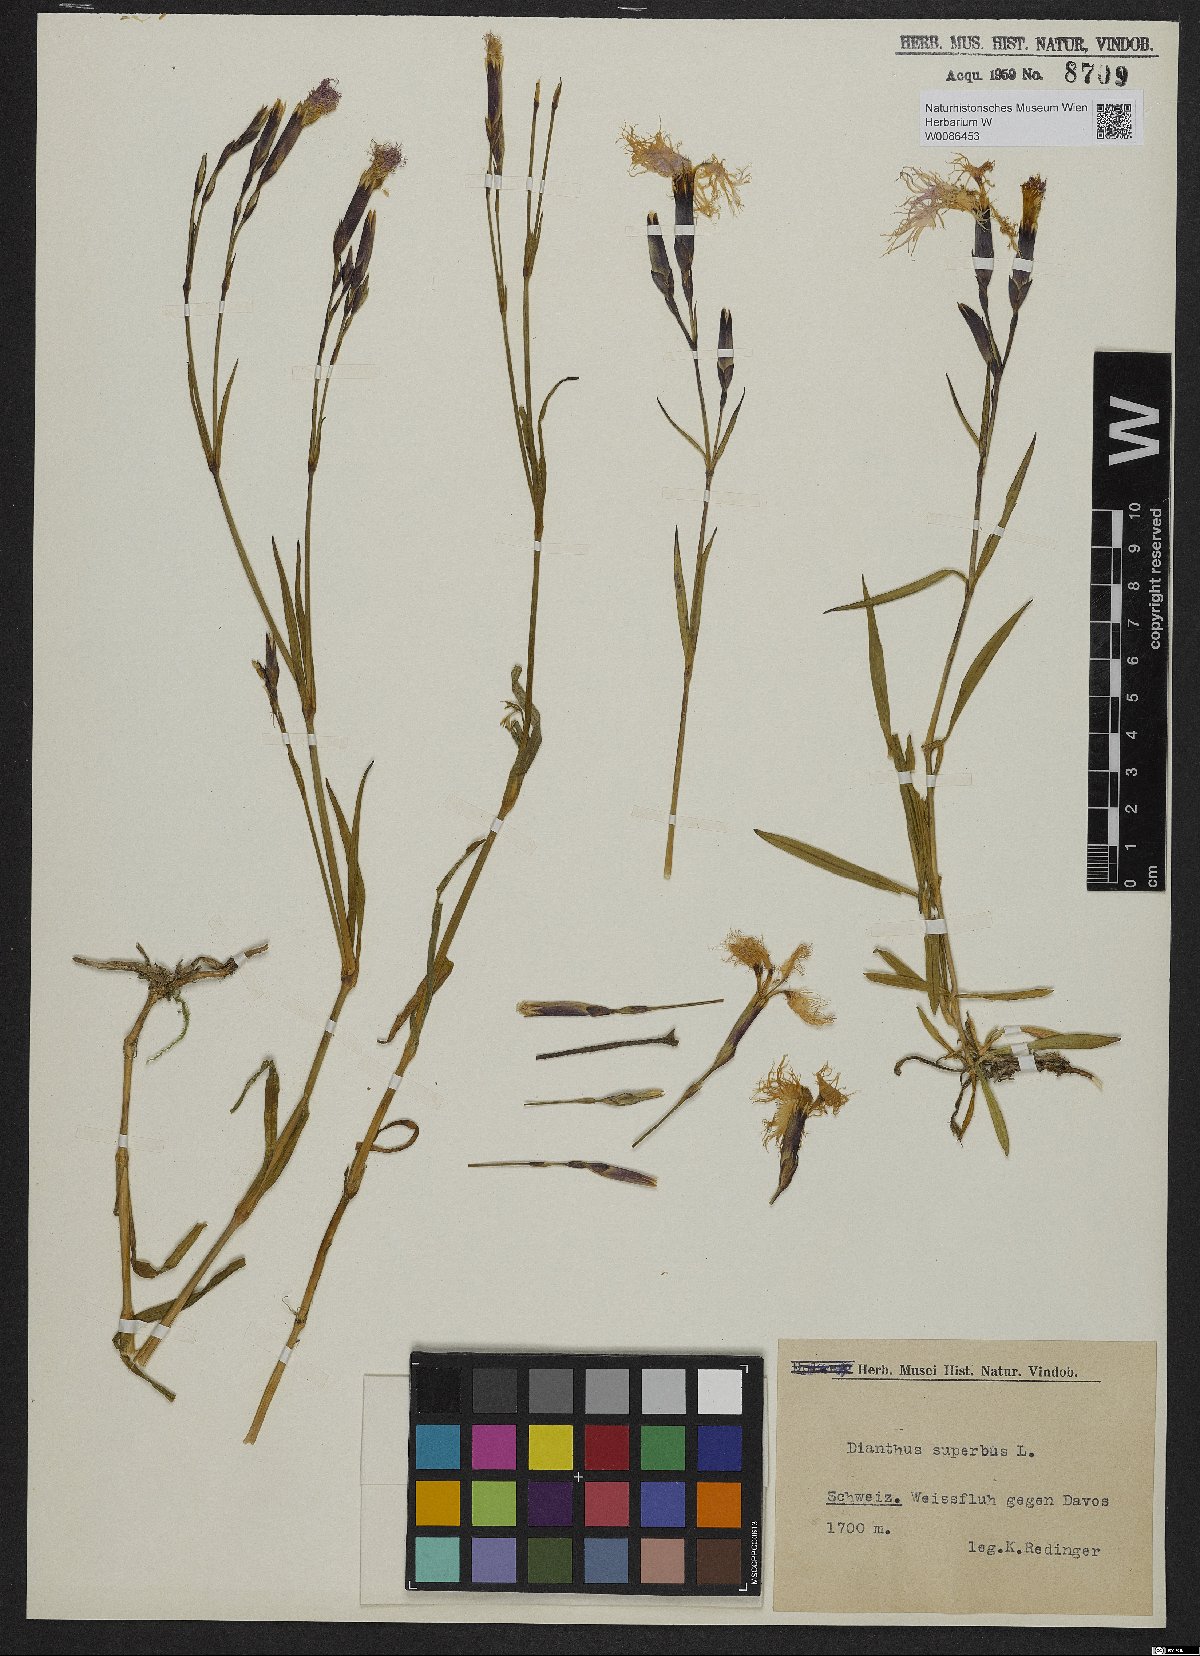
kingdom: Plantae
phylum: Tracheophyta
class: Magnoliopsida
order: Caryophyllales
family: Caryophyllaceae
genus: Dianthus
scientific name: Dianthus superbus
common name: Fringed pink
